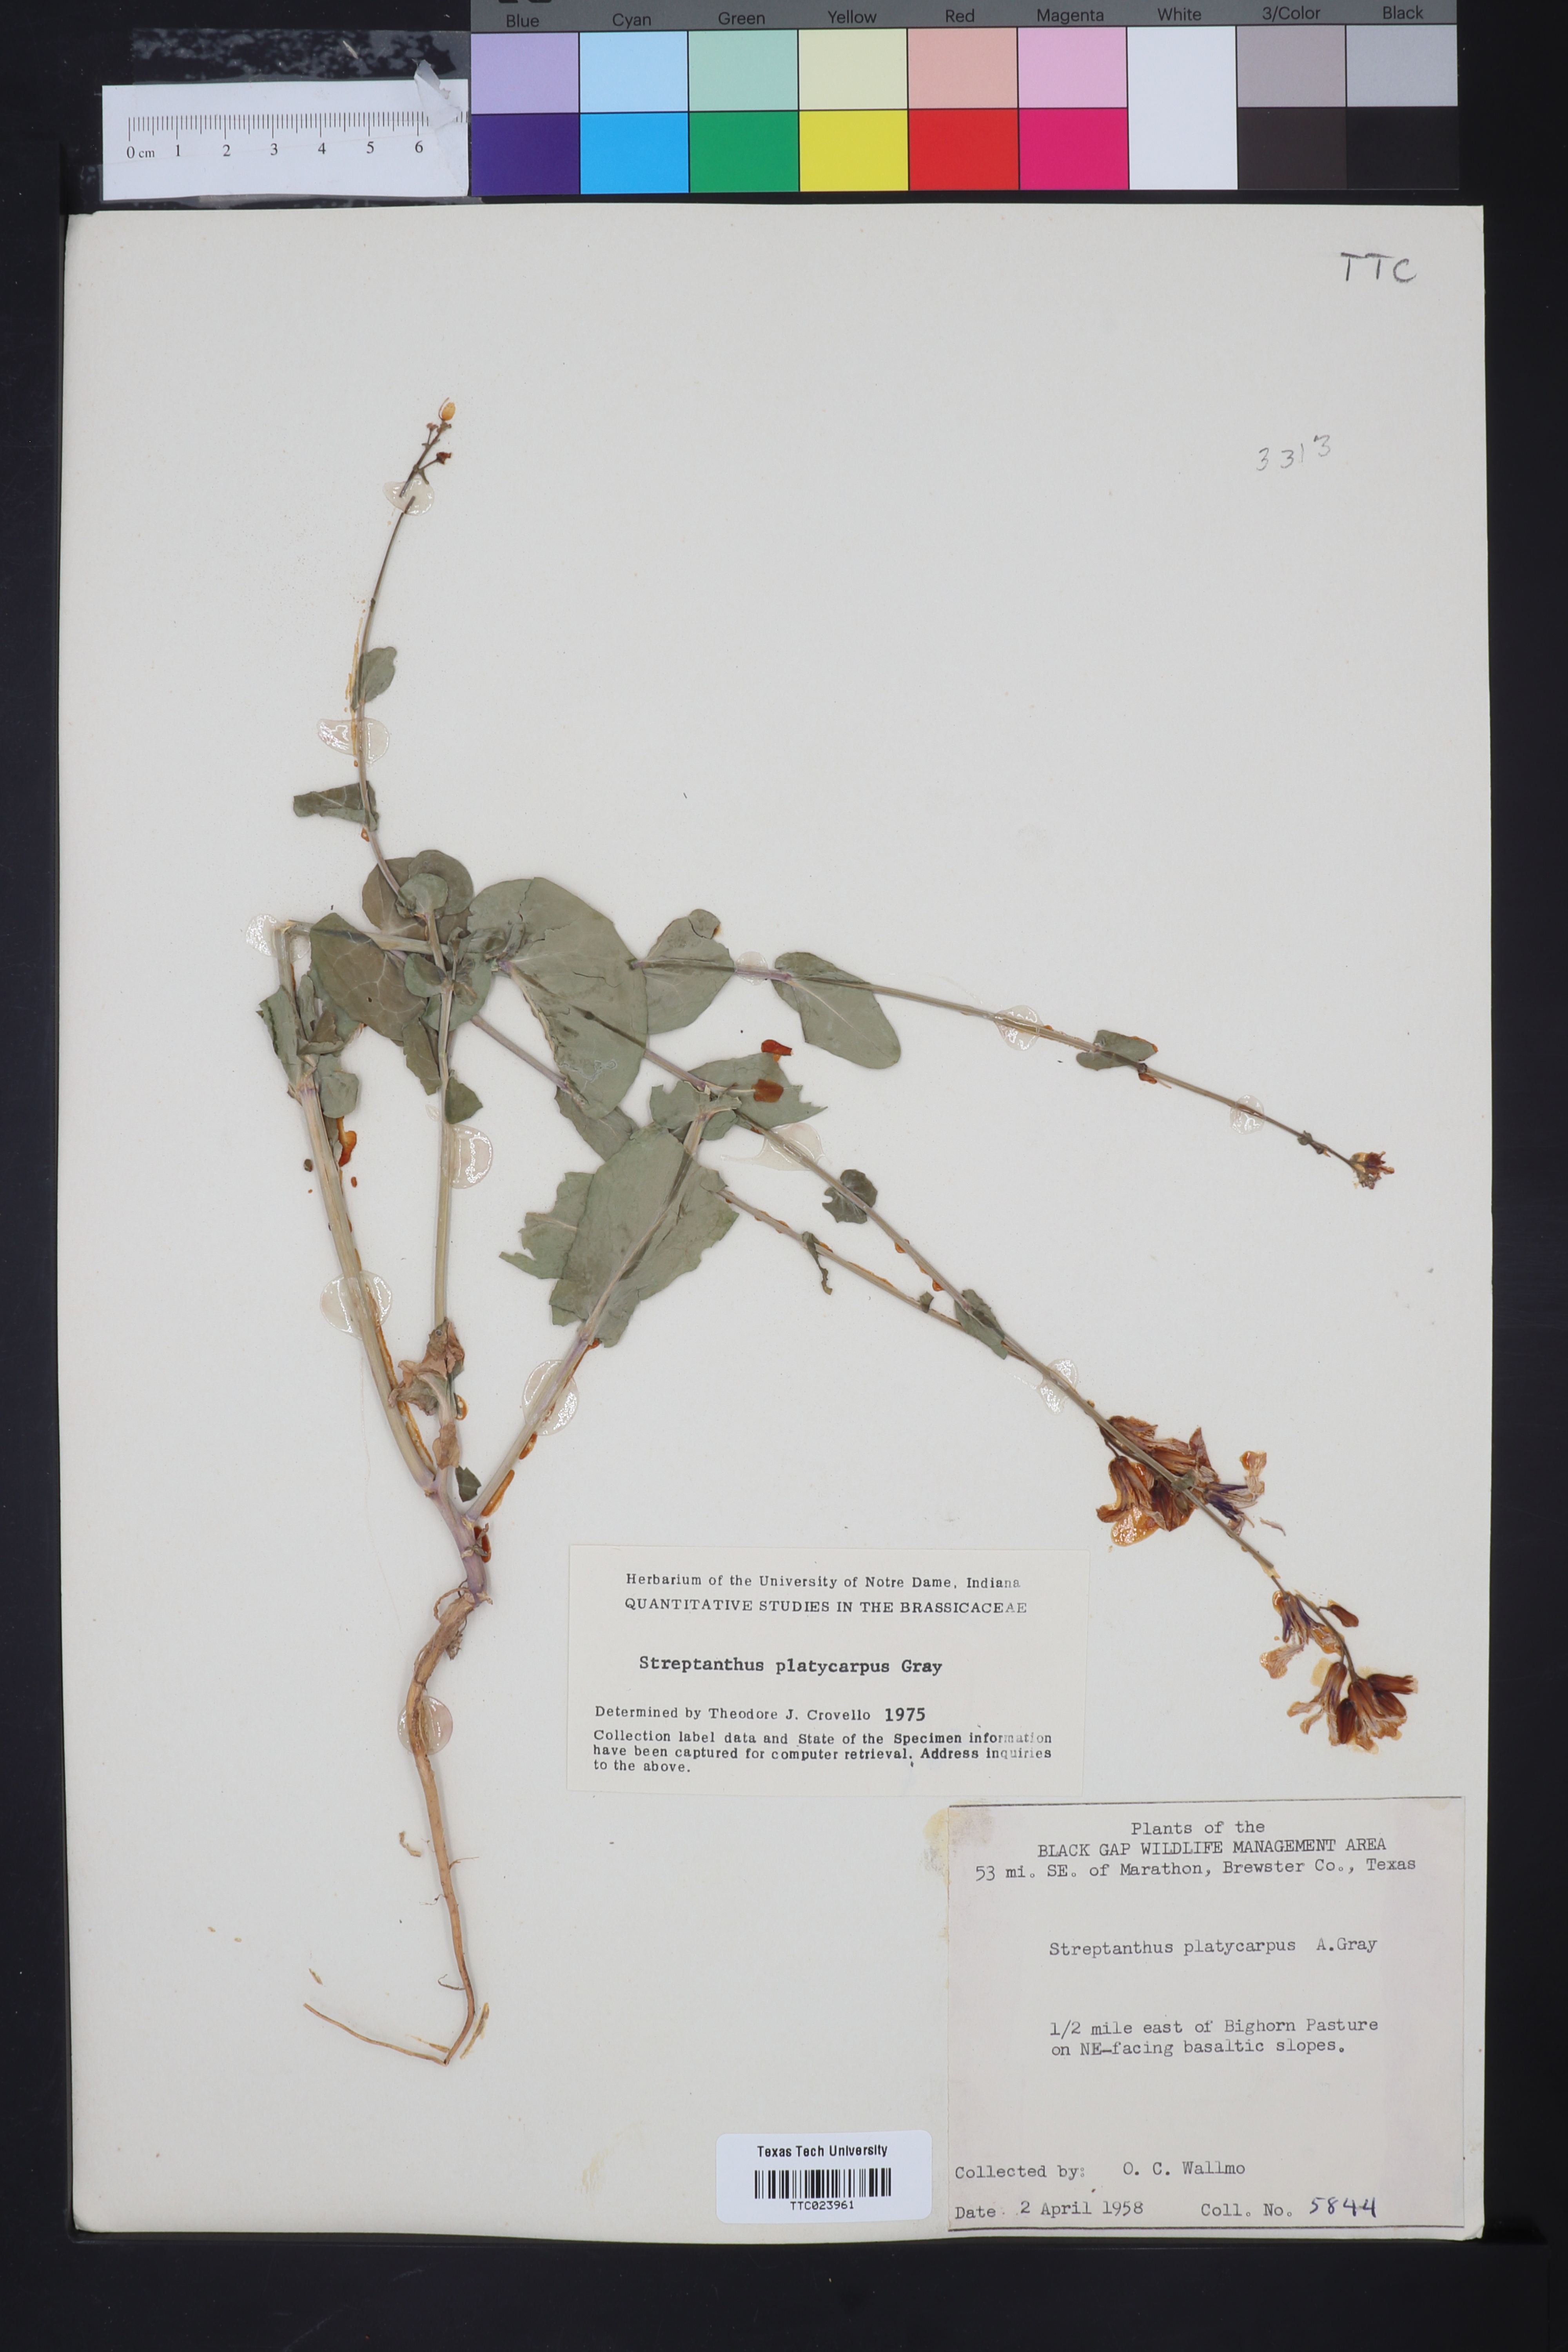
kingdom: Plantae
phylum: Tracheophyta
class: Magnoliopsida
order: Brassicales
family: Brassicaceae
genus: Streptanthus
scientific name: Streptanthus platycarpus
